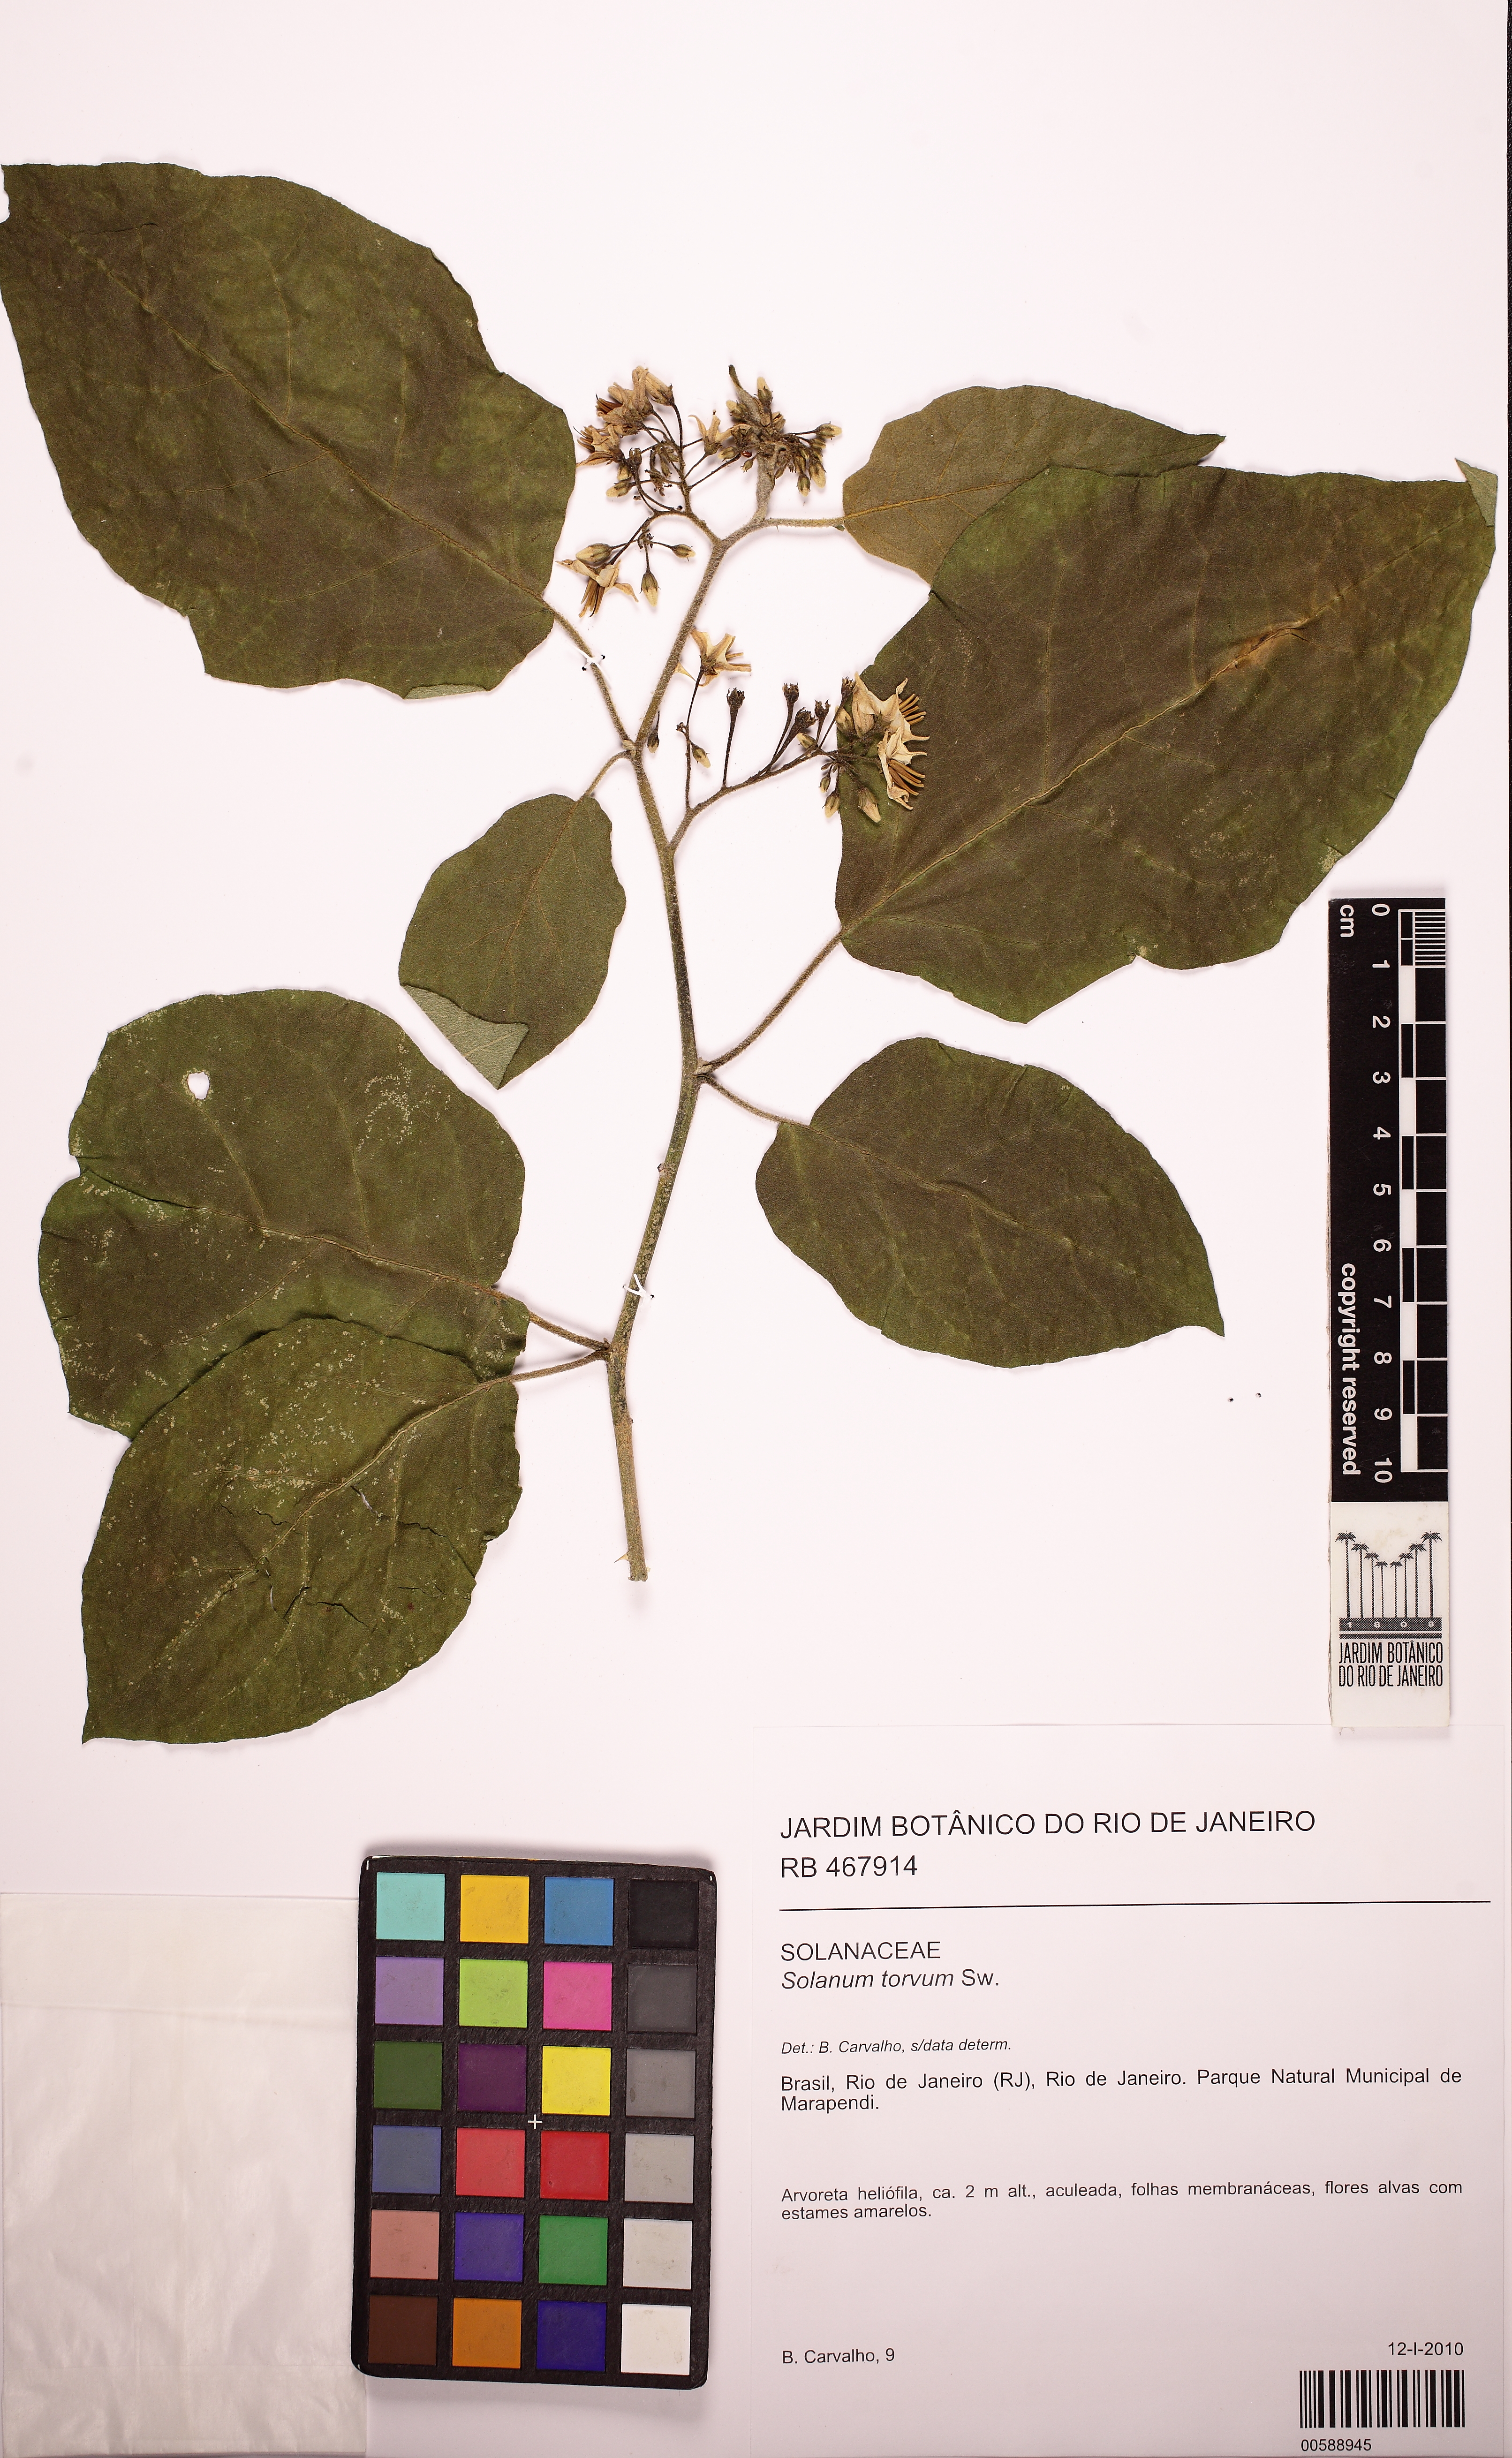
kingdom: Plantae
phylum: Tracheophyta
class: Magnoliopsida
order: Solanales
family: Solanaceae
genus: Solanum
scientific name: Solanum torvum
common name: Turkey berry
